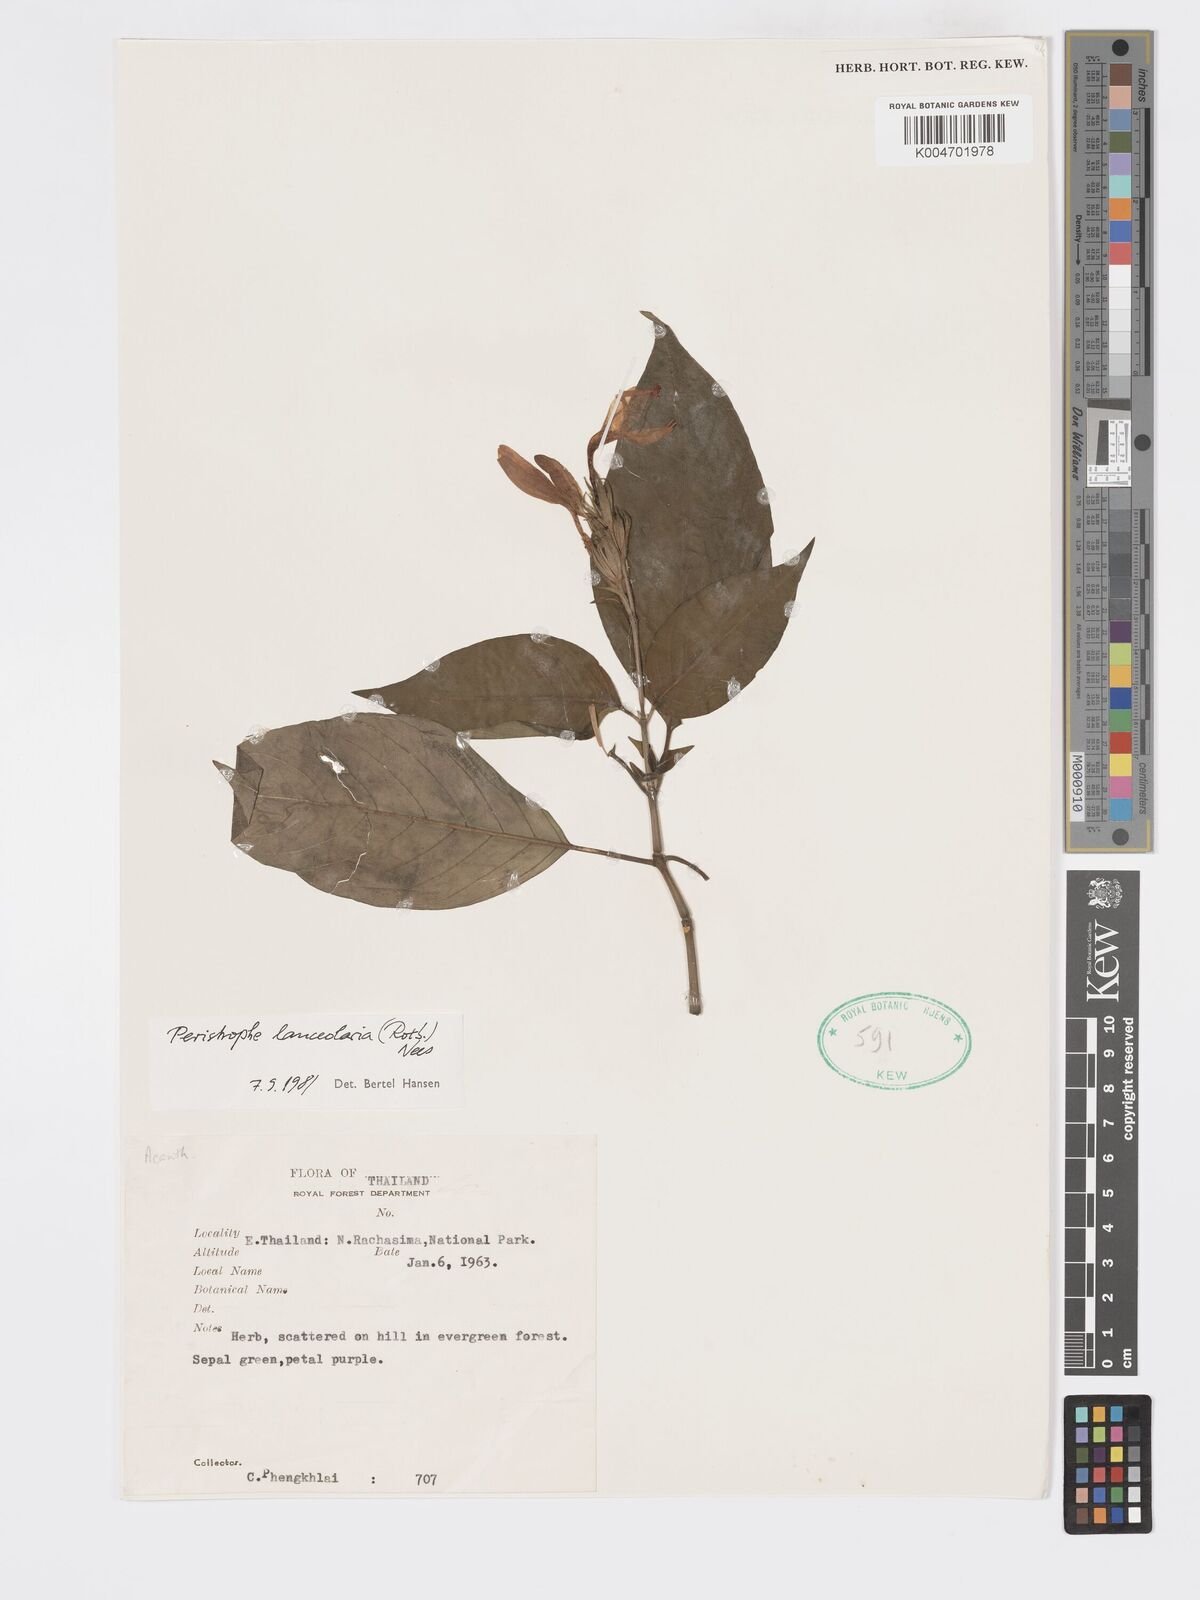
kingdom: Plantae
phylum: Tracheophyta
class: Magnoliopsida
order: Lamiales
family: Acanthaceae
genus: Dicliptera
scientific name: Dicliptera lanceolaria
